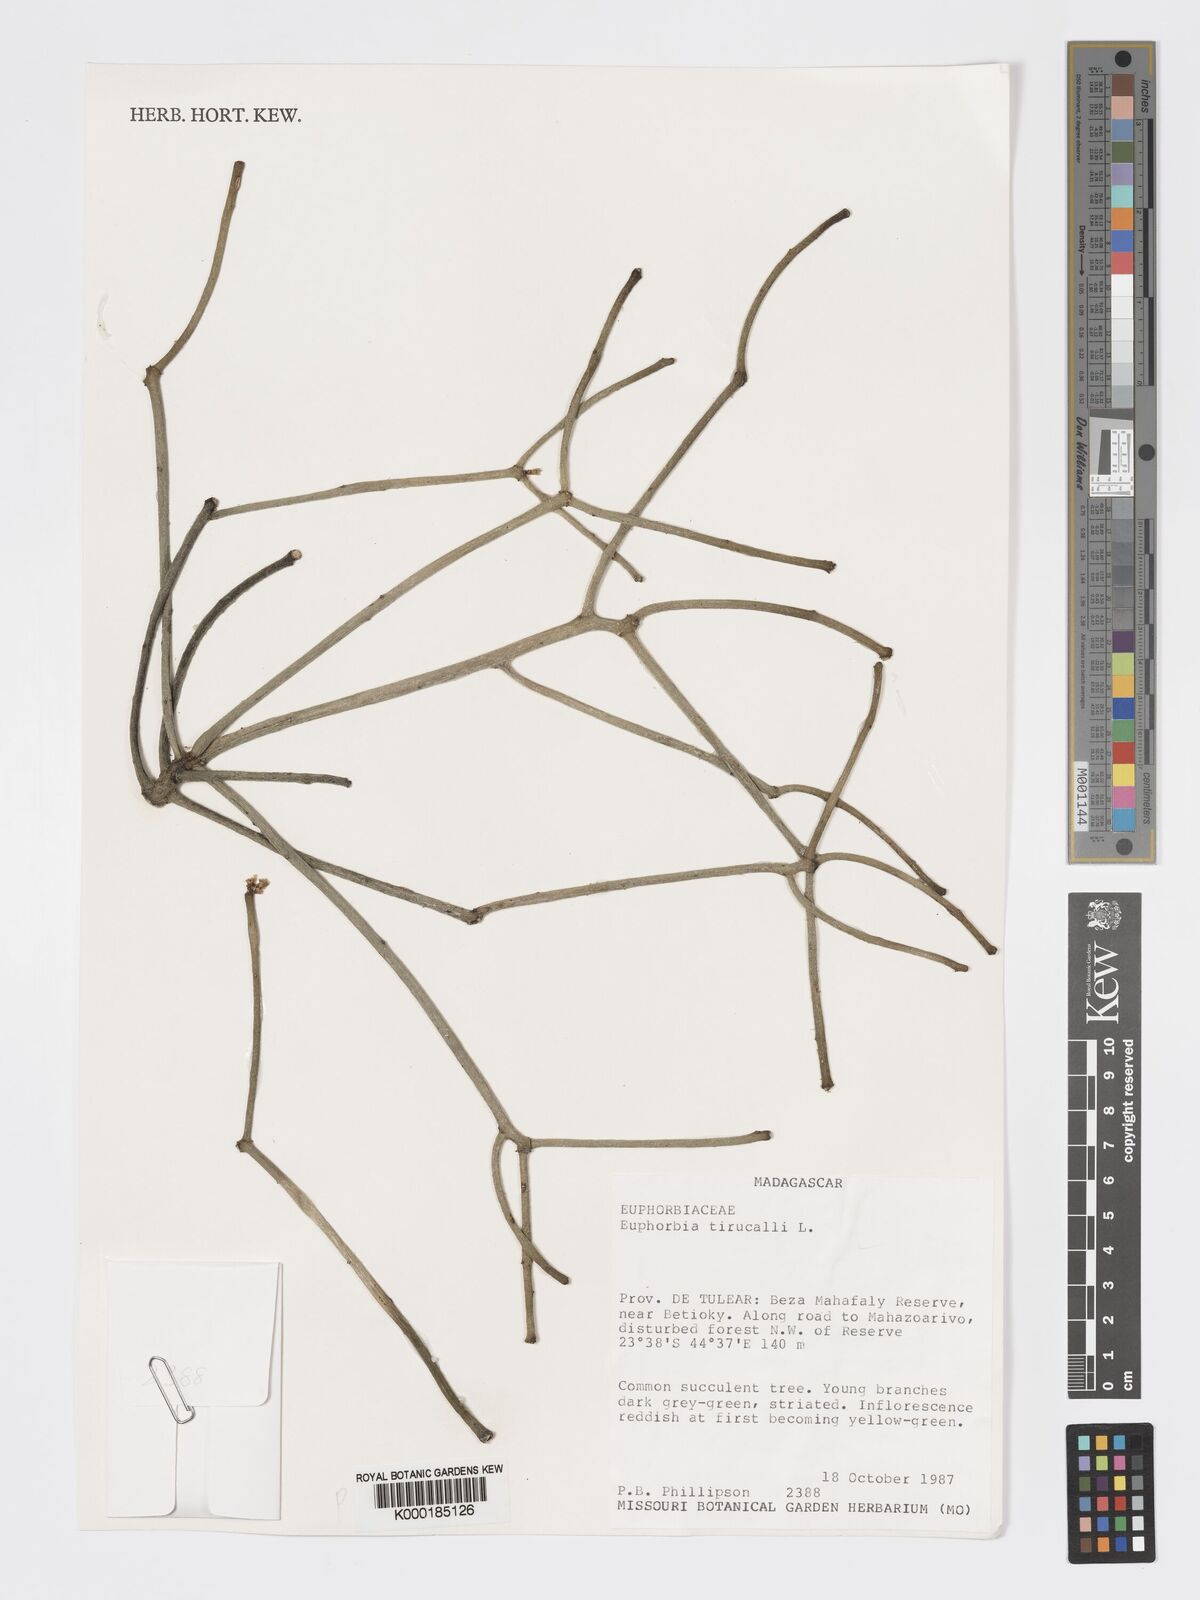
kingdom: Plantae
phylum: Tracheophyta
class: Magnoliopsida
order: Malpighiales
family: Euphorbiaceae
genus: Euphorbia
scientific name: Euphorbia tirucalli
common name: Indiantree spurge
